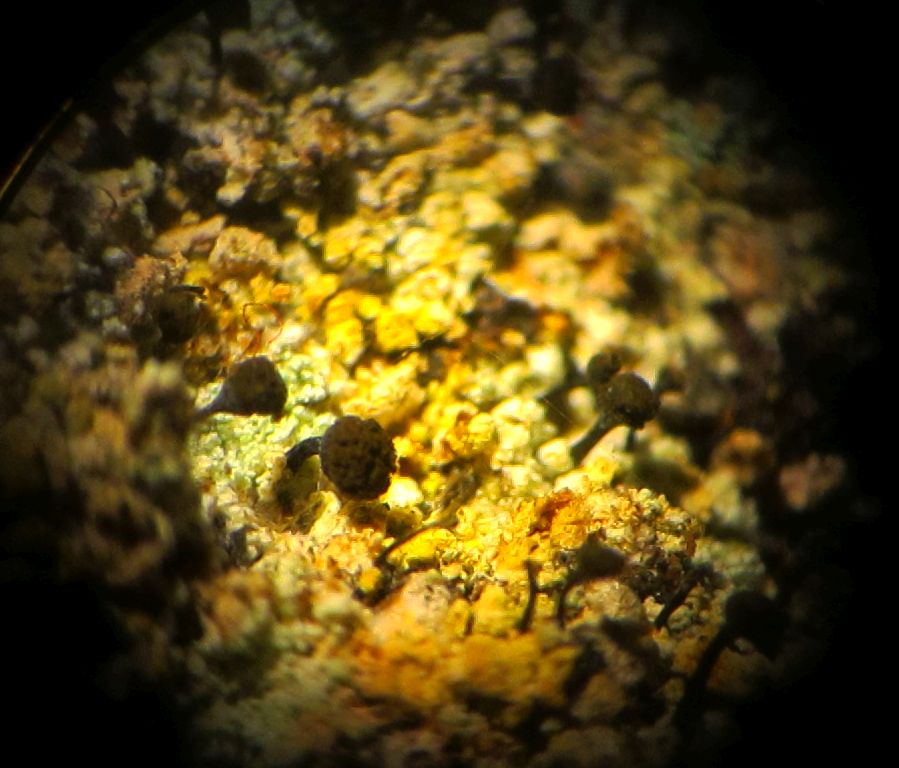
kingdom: Fungi
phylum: Ascomycota
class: Coniocybomycetes
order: Coniocybales
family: Coniocybaceae
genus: Chaenotheca
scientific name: Chaenotheca ferruginea
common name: rustbrun knappenålslav
